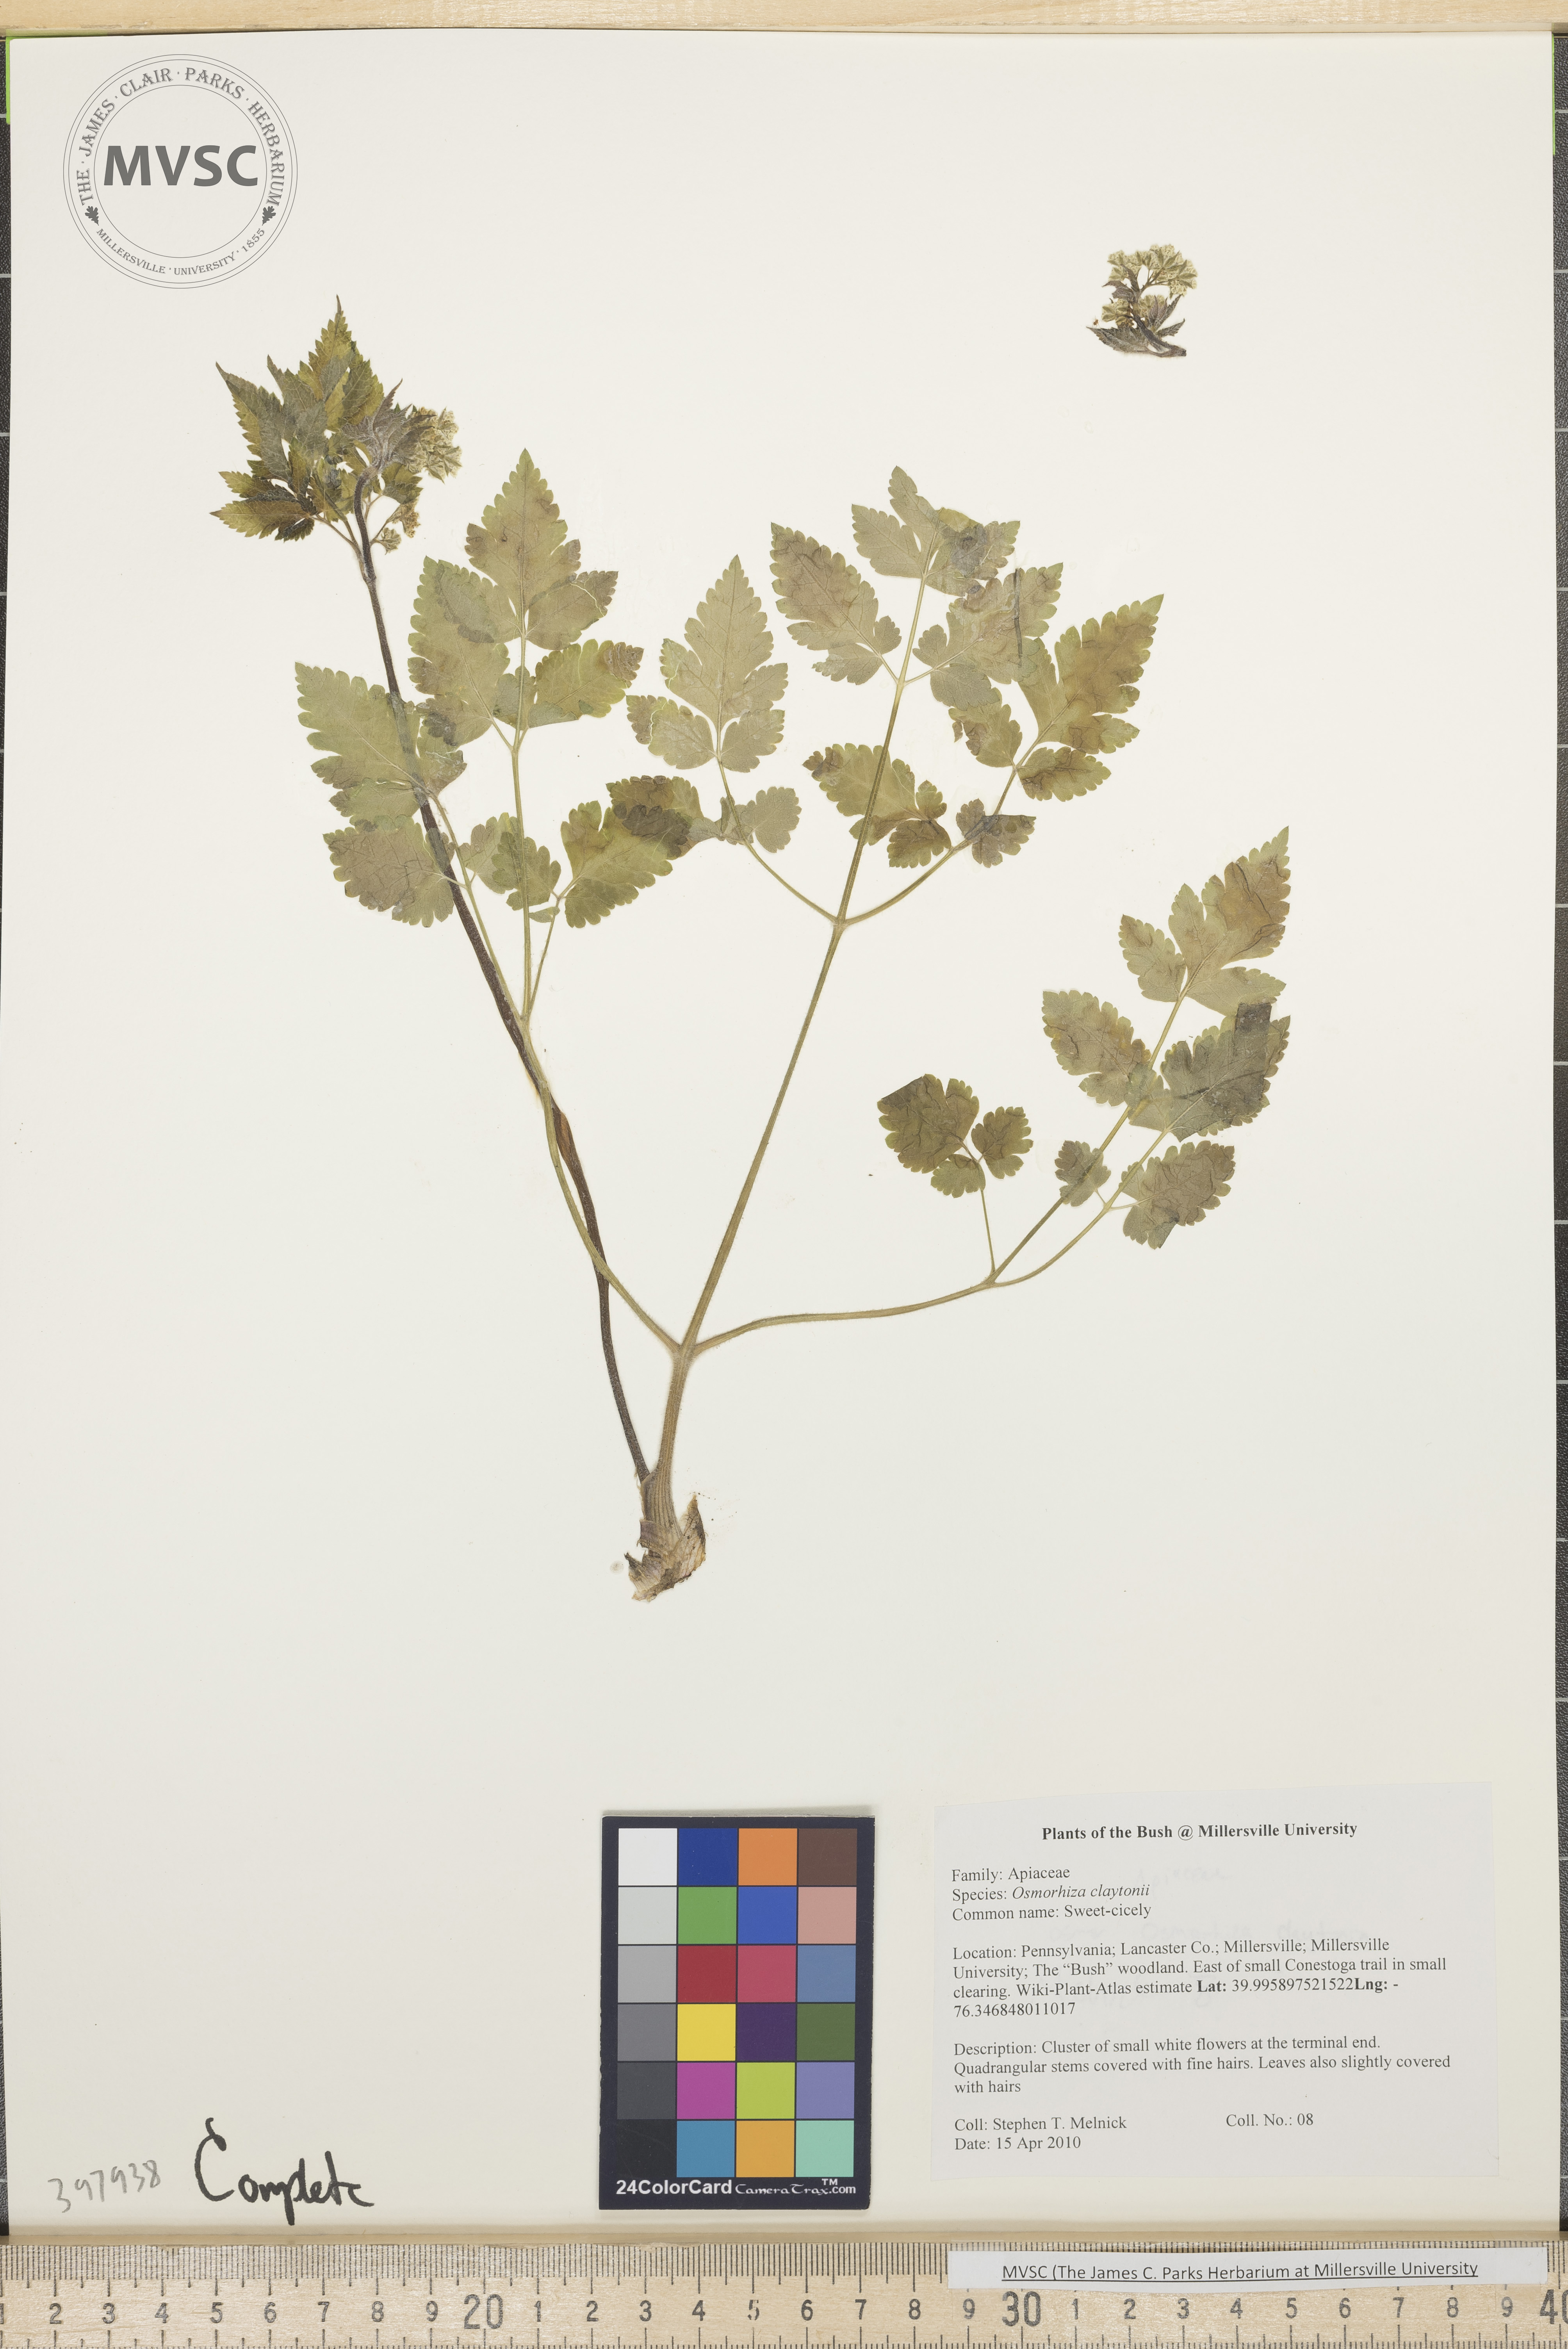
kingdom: Plantae
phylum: Tracheophyta
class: Magnoliopsida
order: Apiales
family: Apiaceae
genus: Osmorhiza
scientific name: Osmorhiza claytonii
